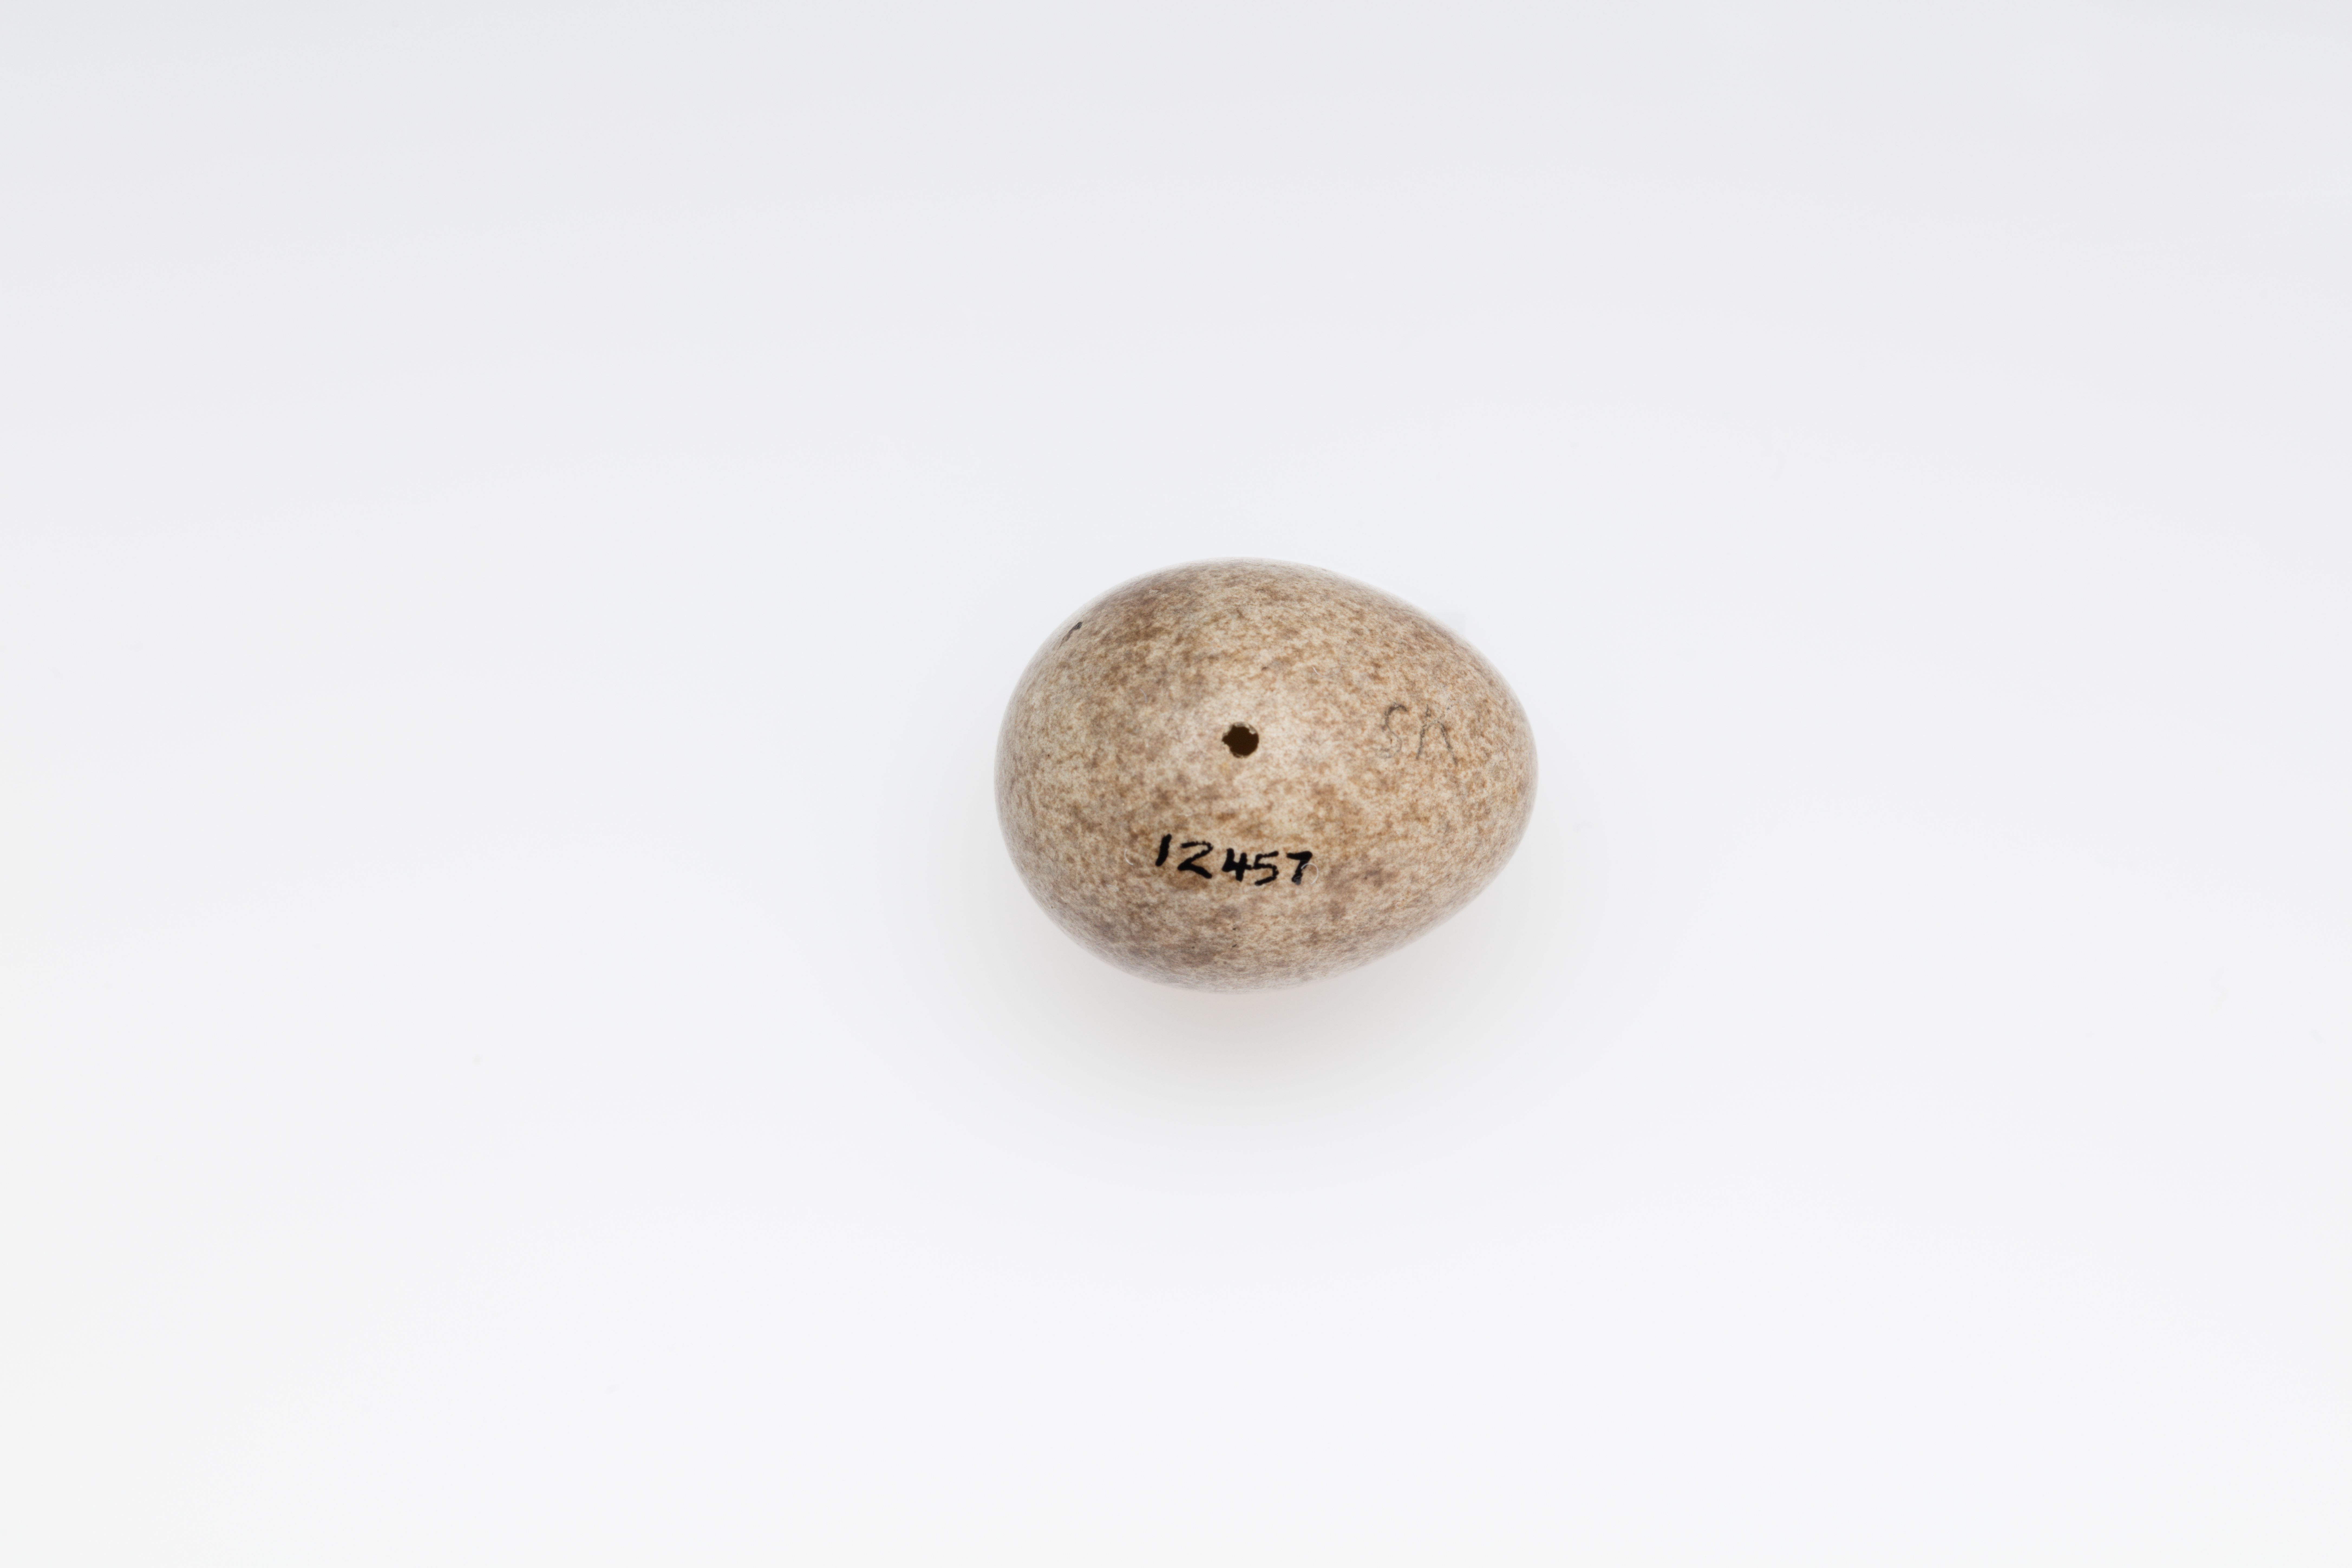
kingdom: Animalia
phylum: Chordata
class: Aves
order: Passeriformes
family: Alaudidae
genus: Lullula
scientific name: Lullula arborea
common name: Woodlark
